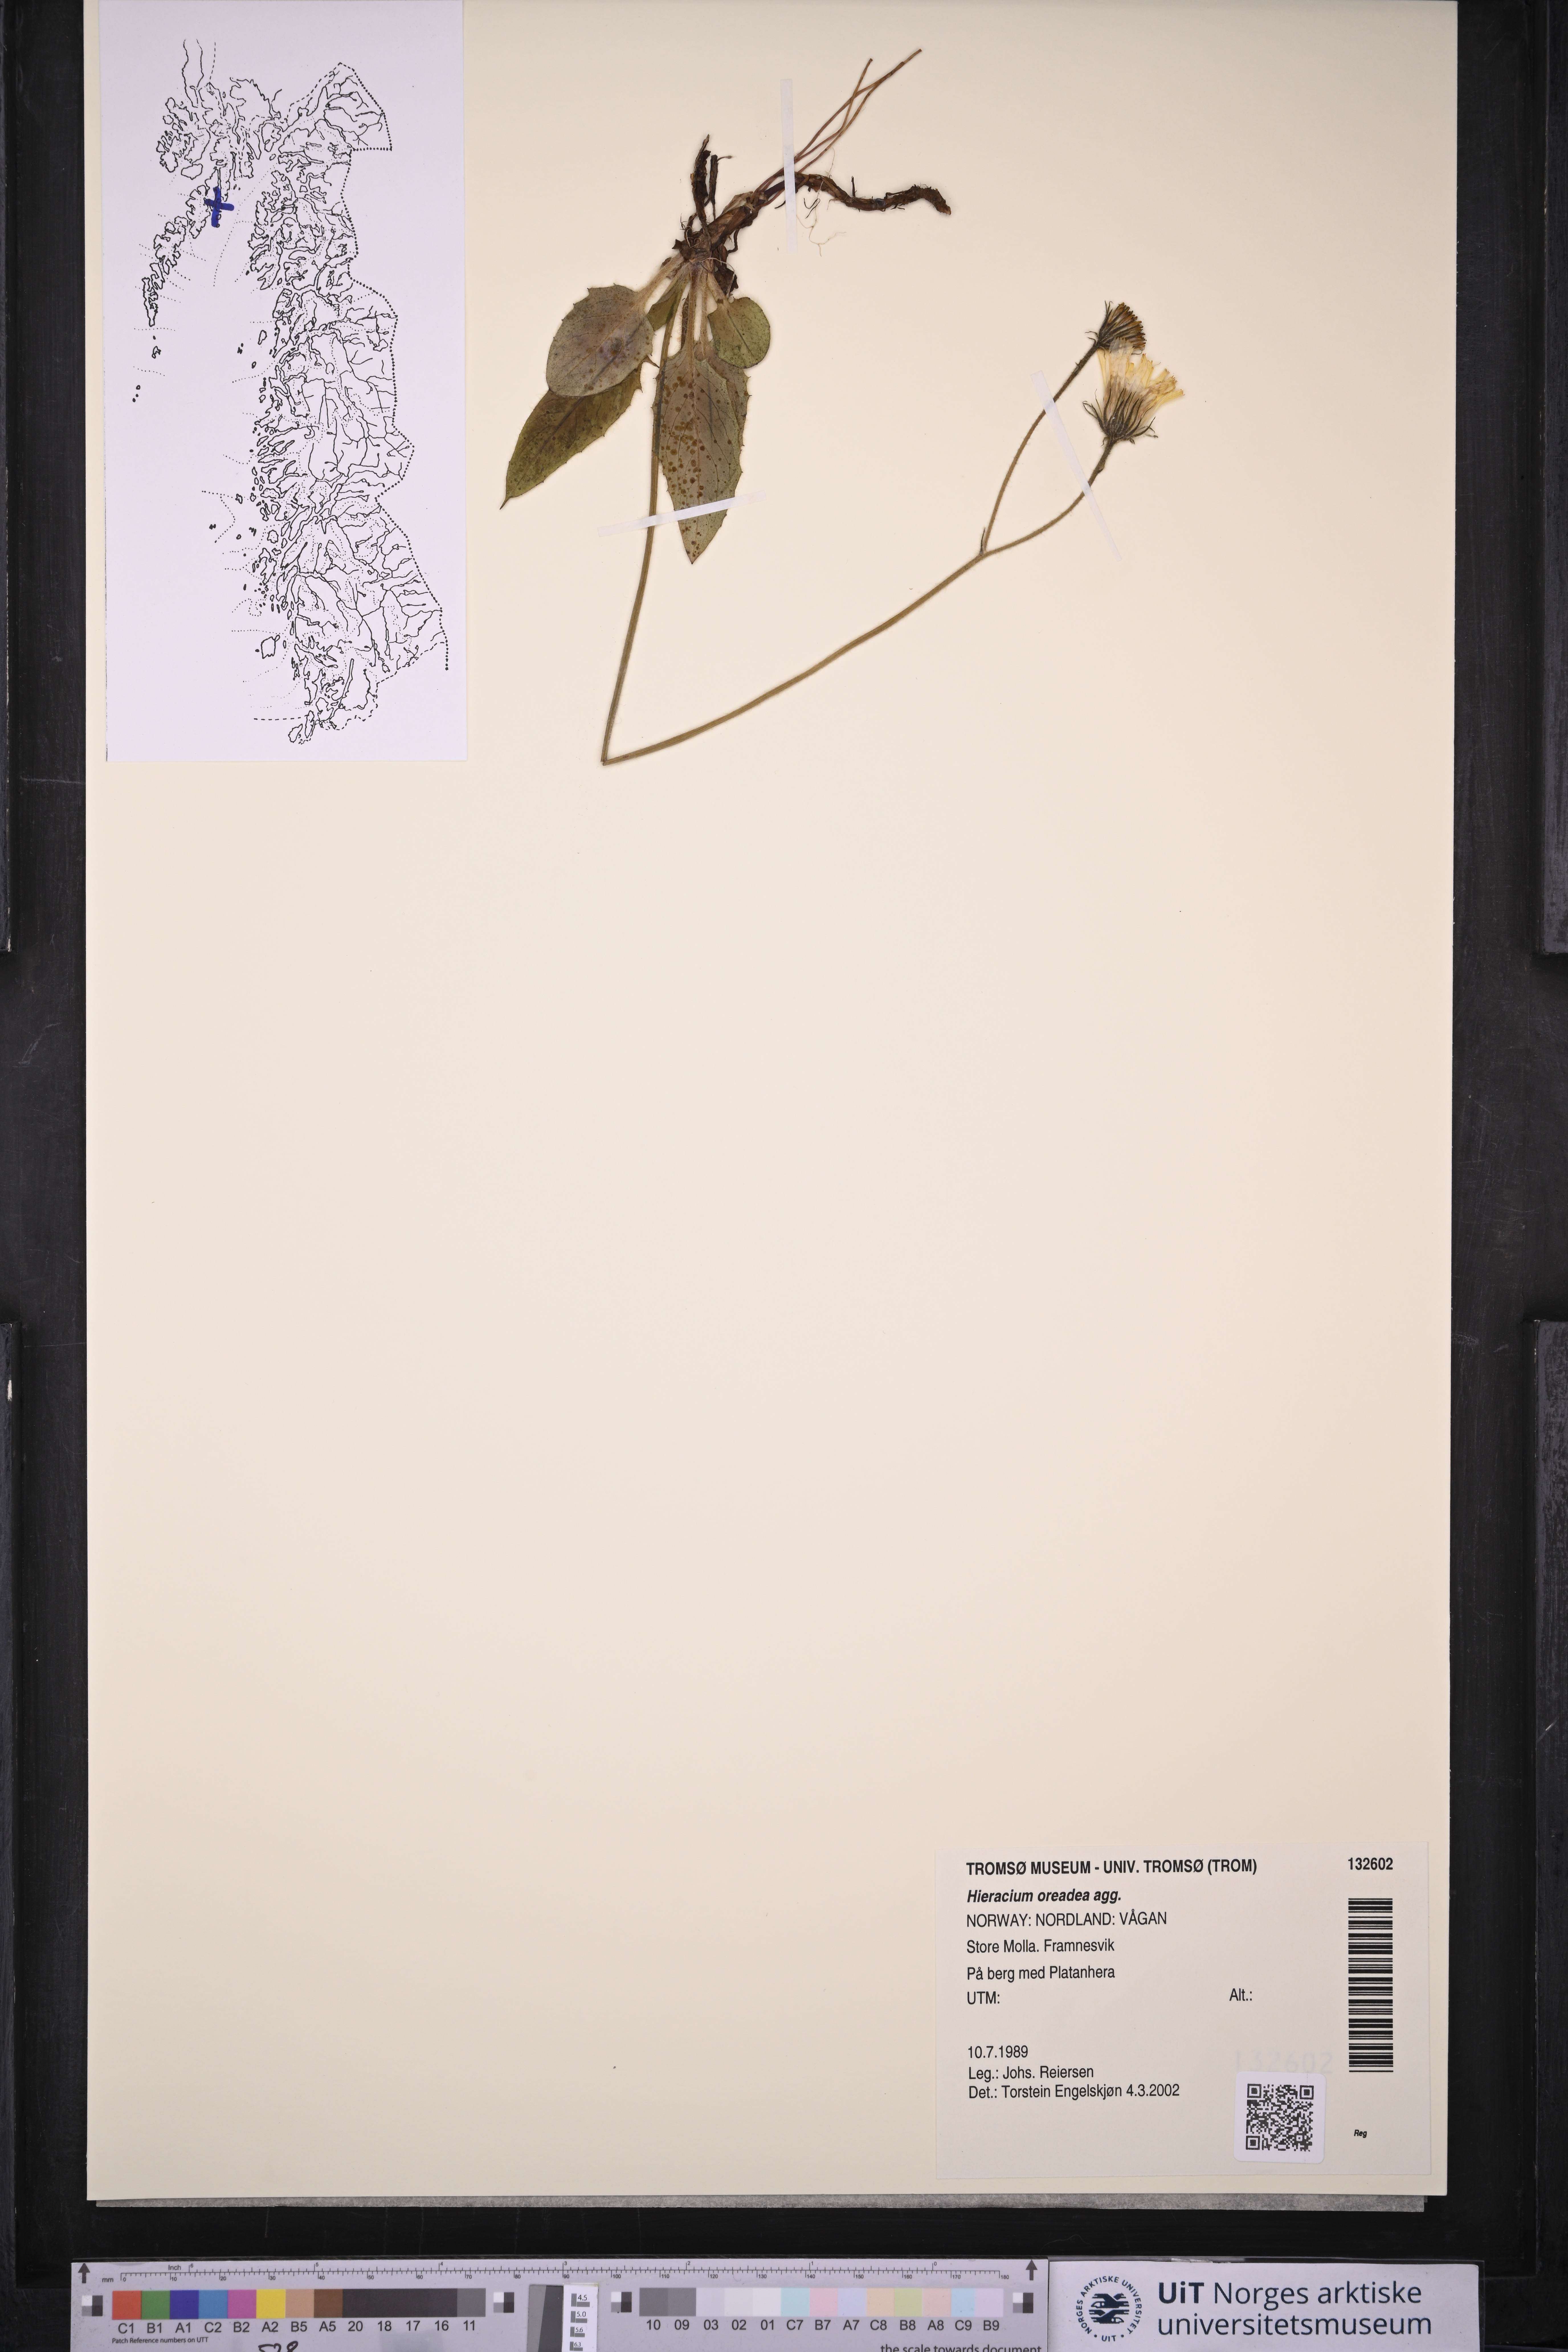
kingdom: Plantae
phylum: Tracheophyta
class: Magnoliopsida
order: Asterales
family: Asteraceae
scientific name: Asteraceae
